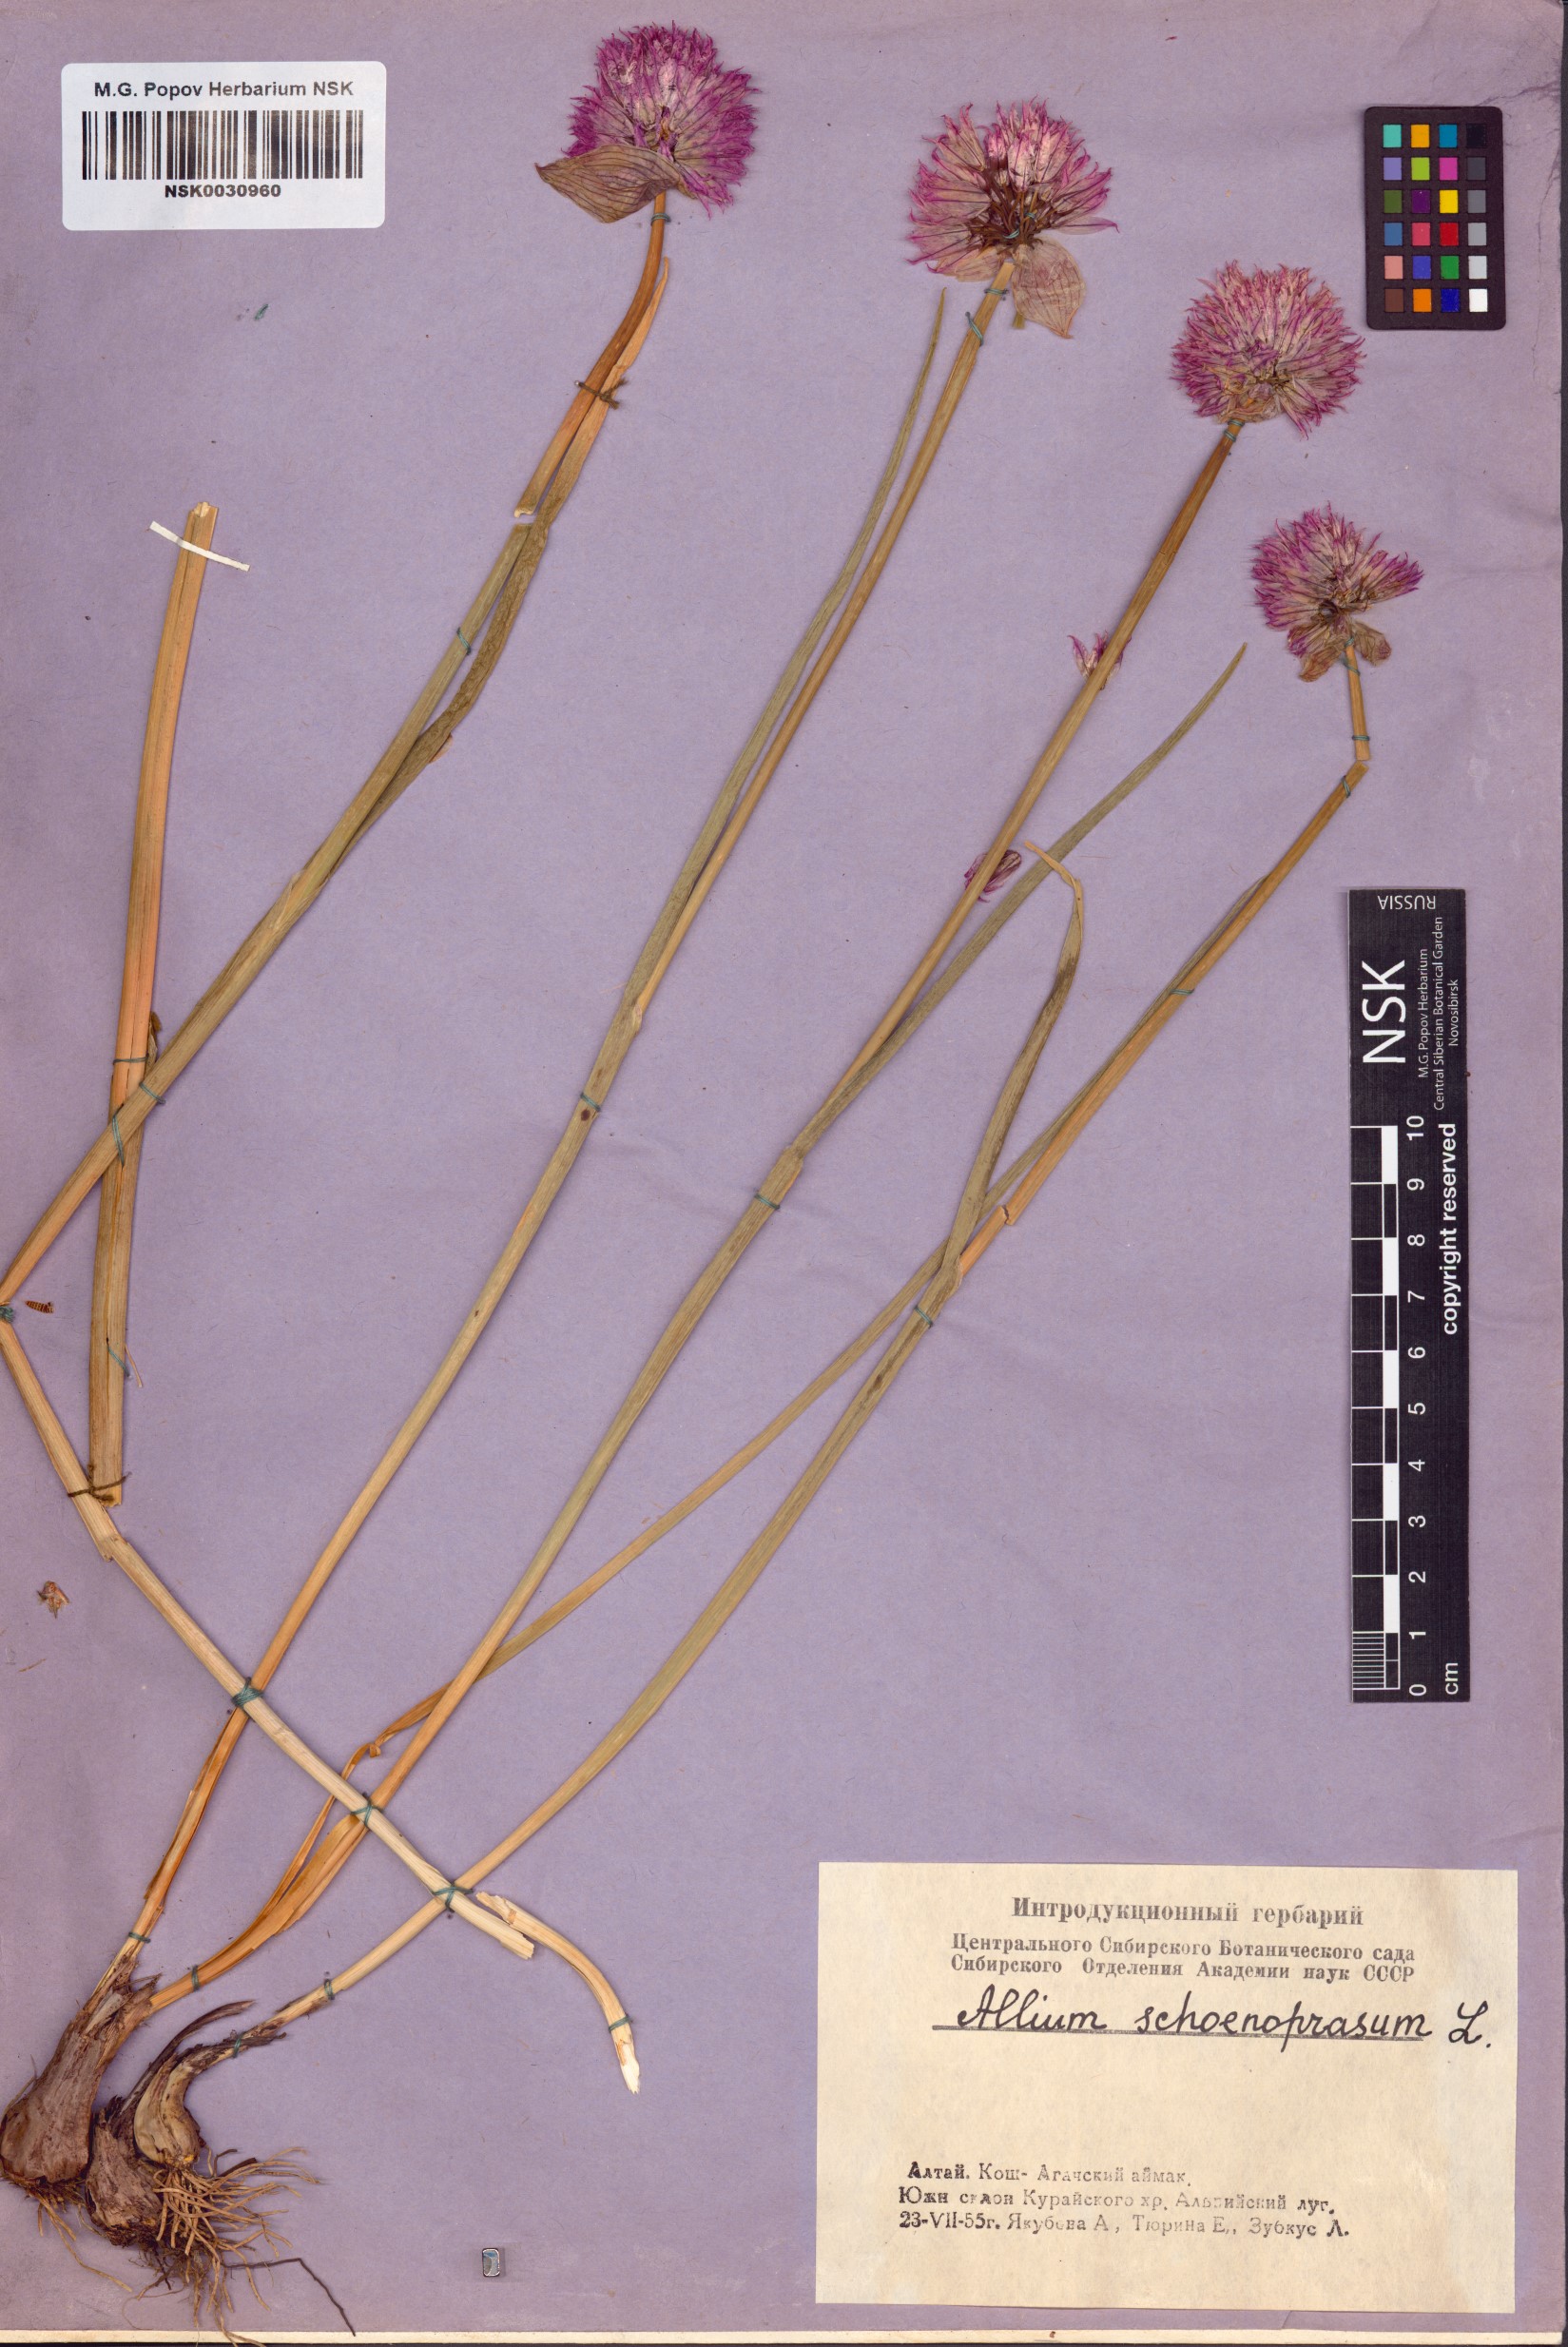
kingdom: Plantae
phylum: Tracheophyta
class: Liliopsida
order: Asparagales
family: Amaryllidaceae
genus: Allium
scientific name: Allium schoenoprasum
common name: Chives
